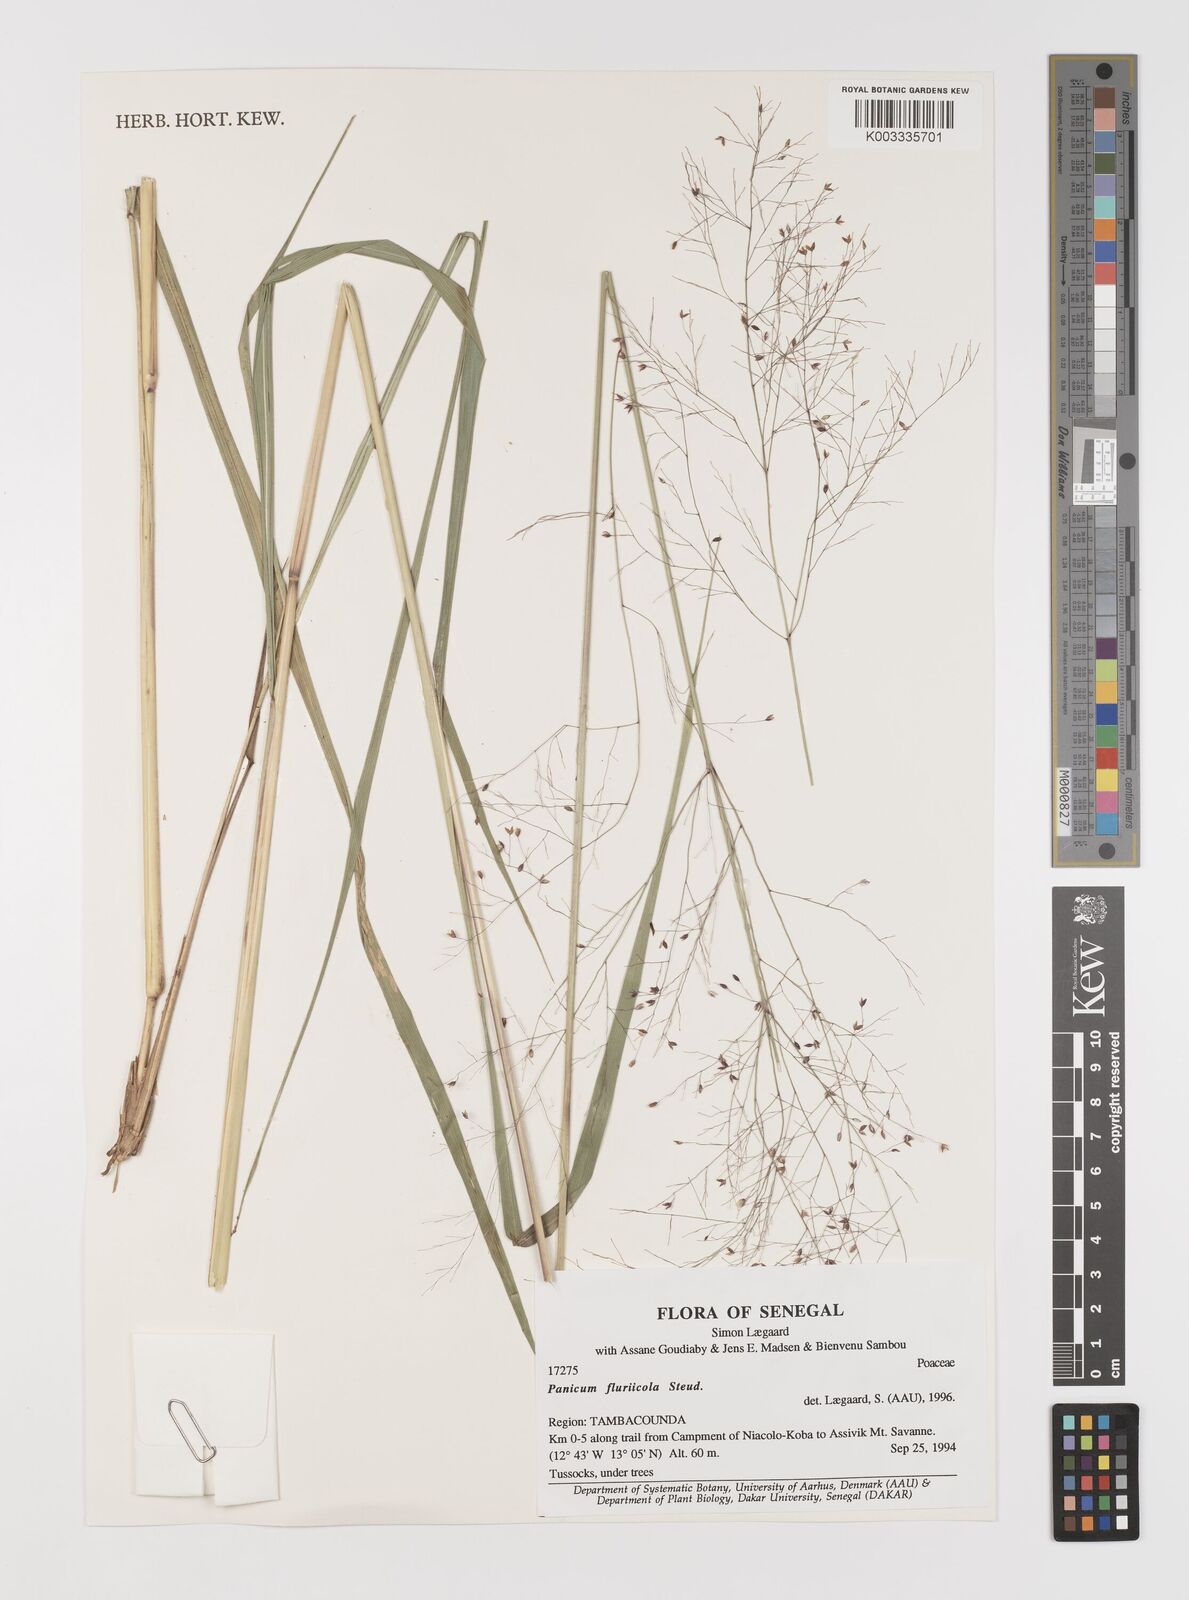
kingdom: Plantae
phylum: Tracheophyta
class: Liliopsida
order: Poales
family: Poaceae
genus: Panicum
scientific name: Panicum fluviicola
